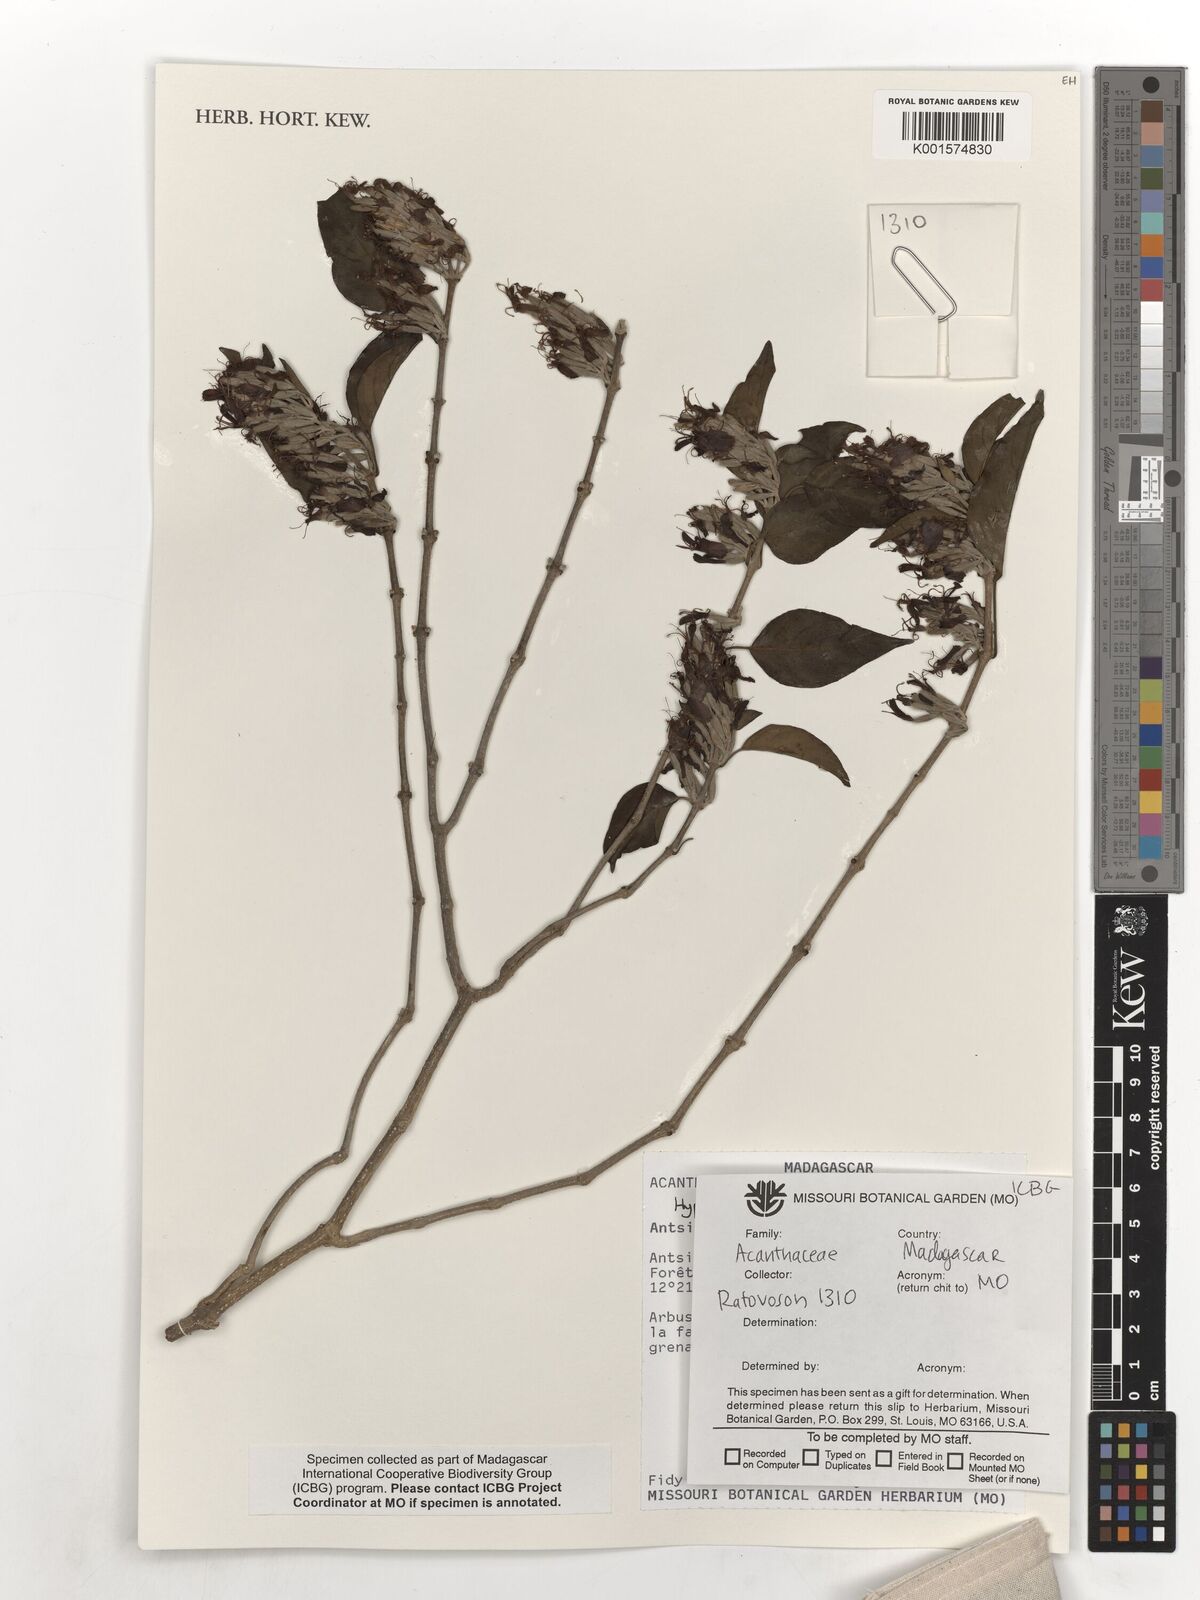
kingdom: Plantae
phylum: Tracheophyta
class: Magnoliopsida
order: Lamiales
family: Acanthaceae
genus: Hypoestes
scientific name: Hypoestes
